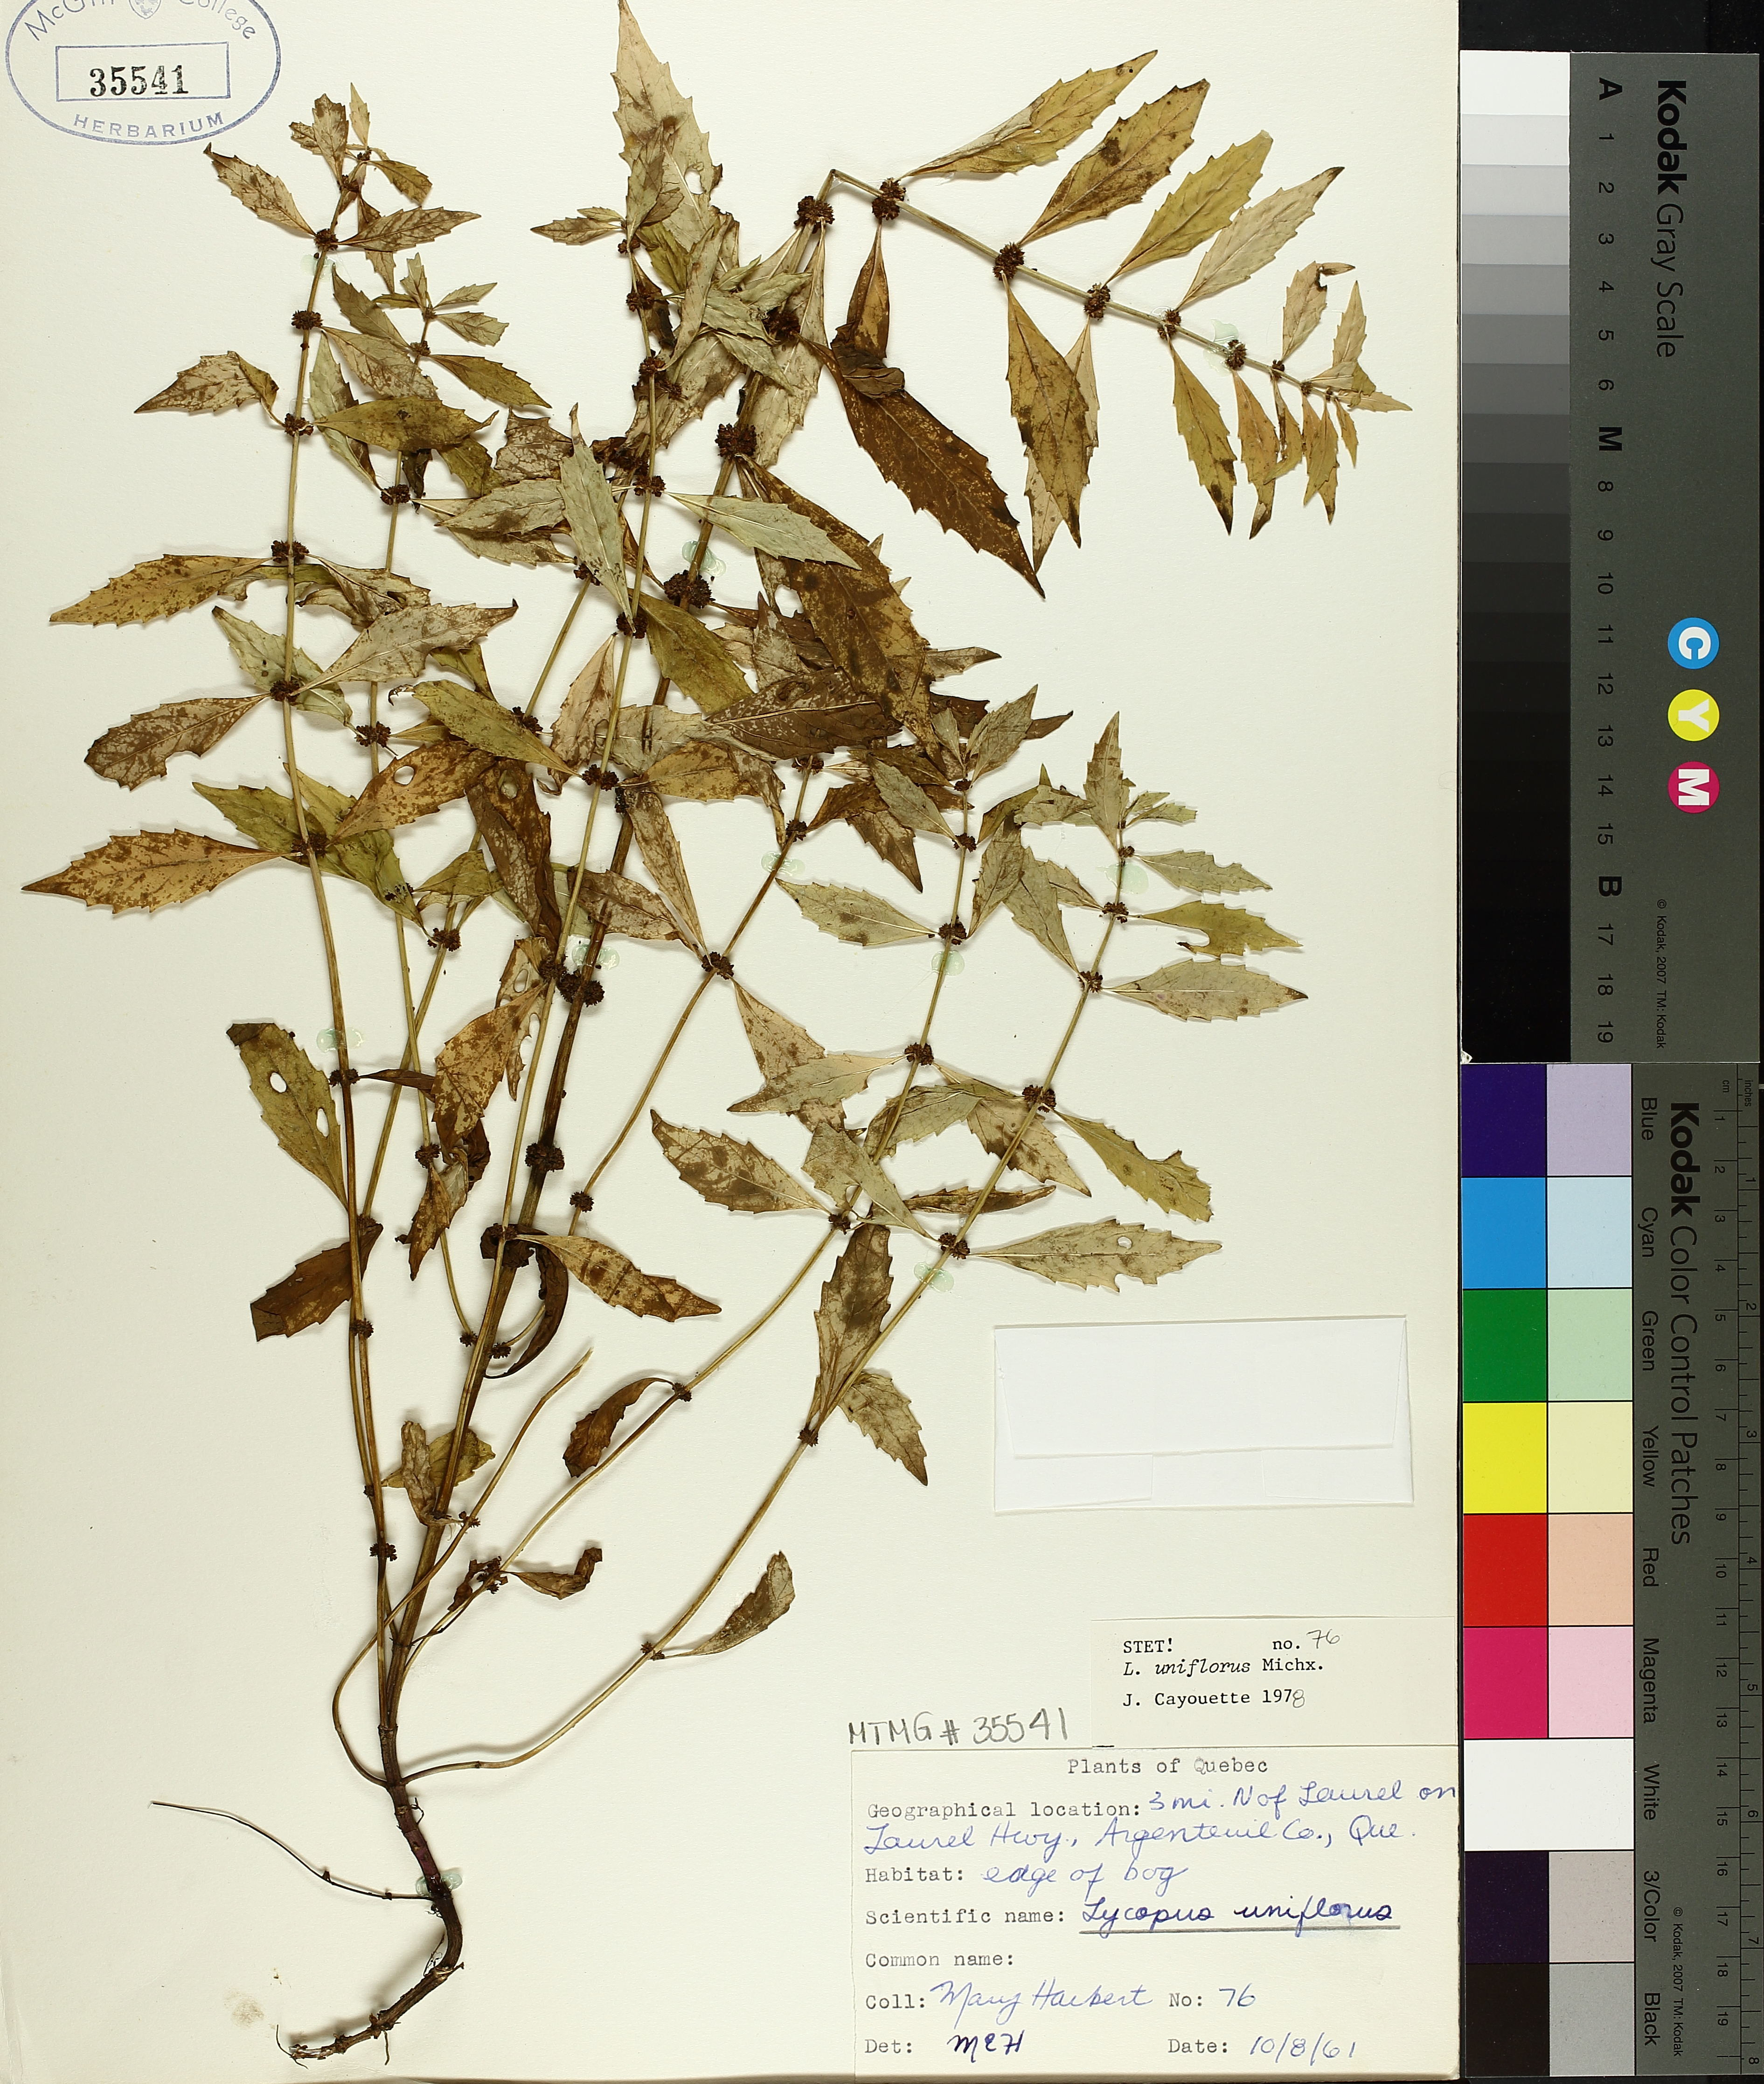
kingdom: Plantae
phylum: Tracheophyta
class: Magnoliopsida
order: Lamiales
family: Lamiaceae
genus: Lycopus
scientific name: Lycopus uniflorus
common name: Northern bugleweed
